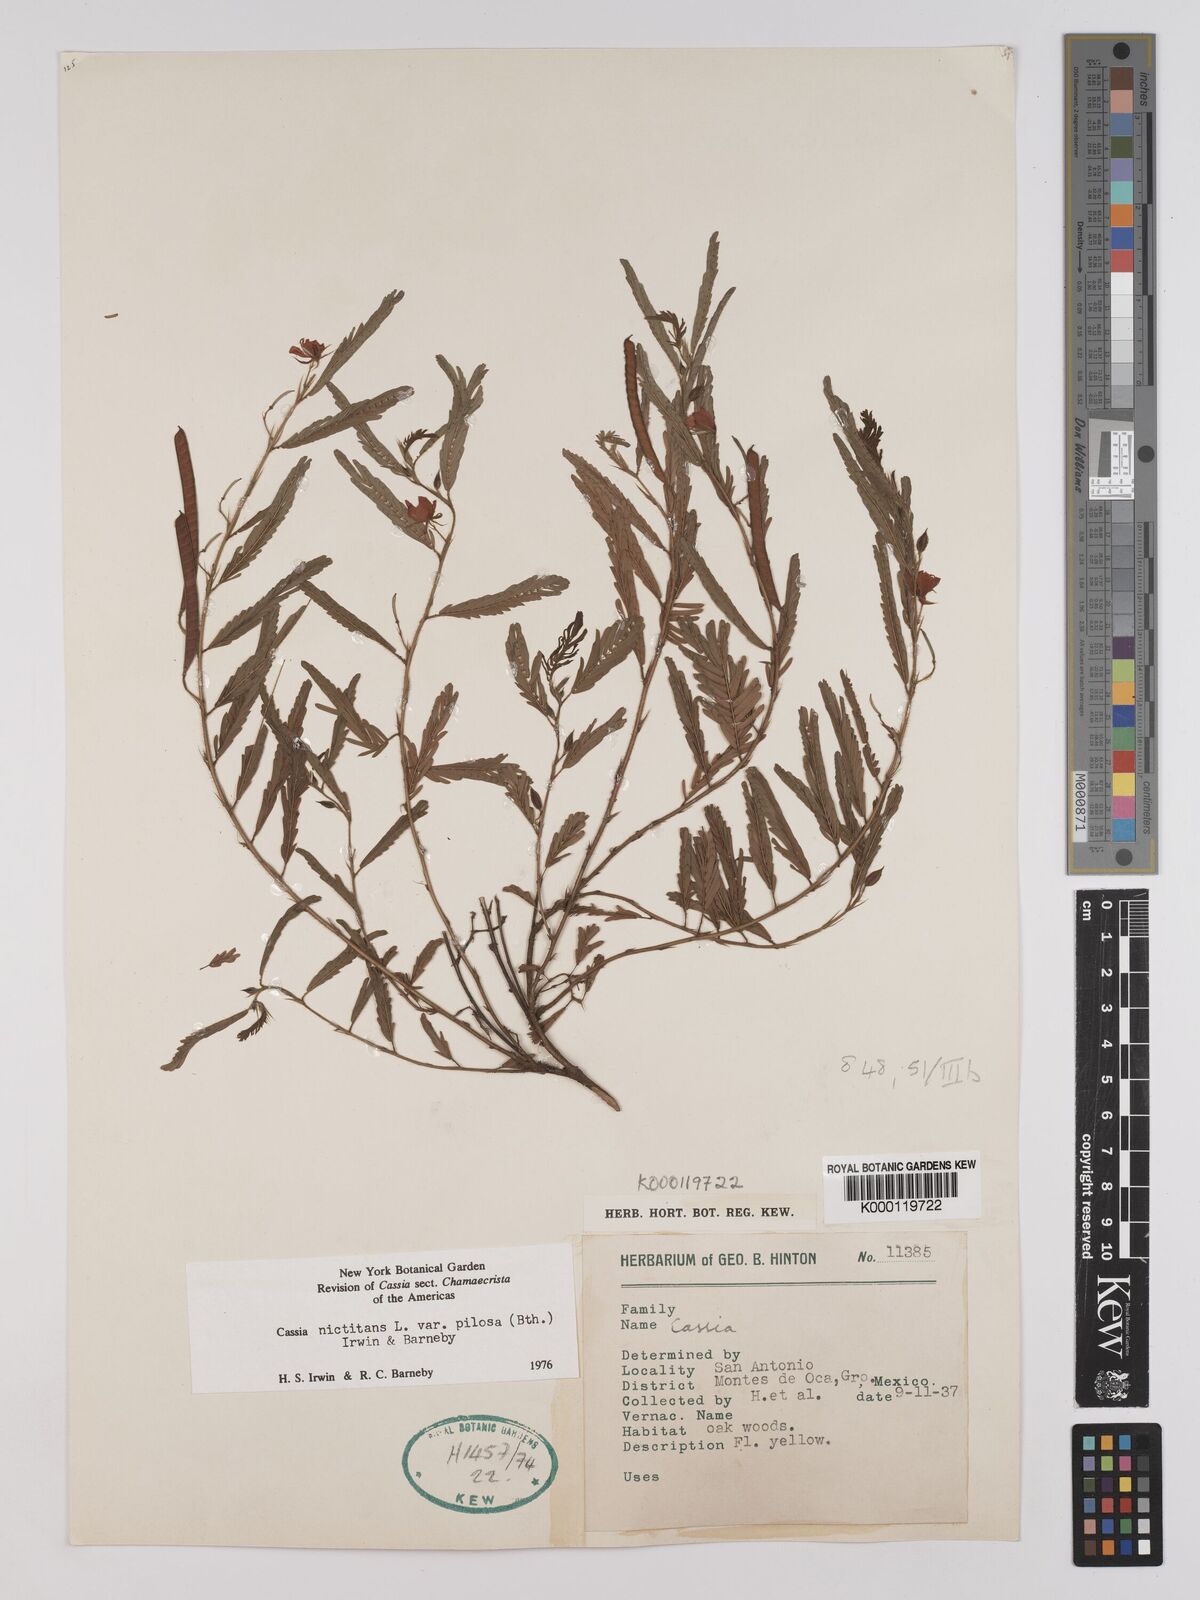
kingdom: Plantae
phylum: Tracheophyta
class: Magnoliopsida
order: Fabales
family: Fabaceae
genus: Chamaecrista
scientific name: Chamaecrista nictitans
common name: Sensitive cassia
